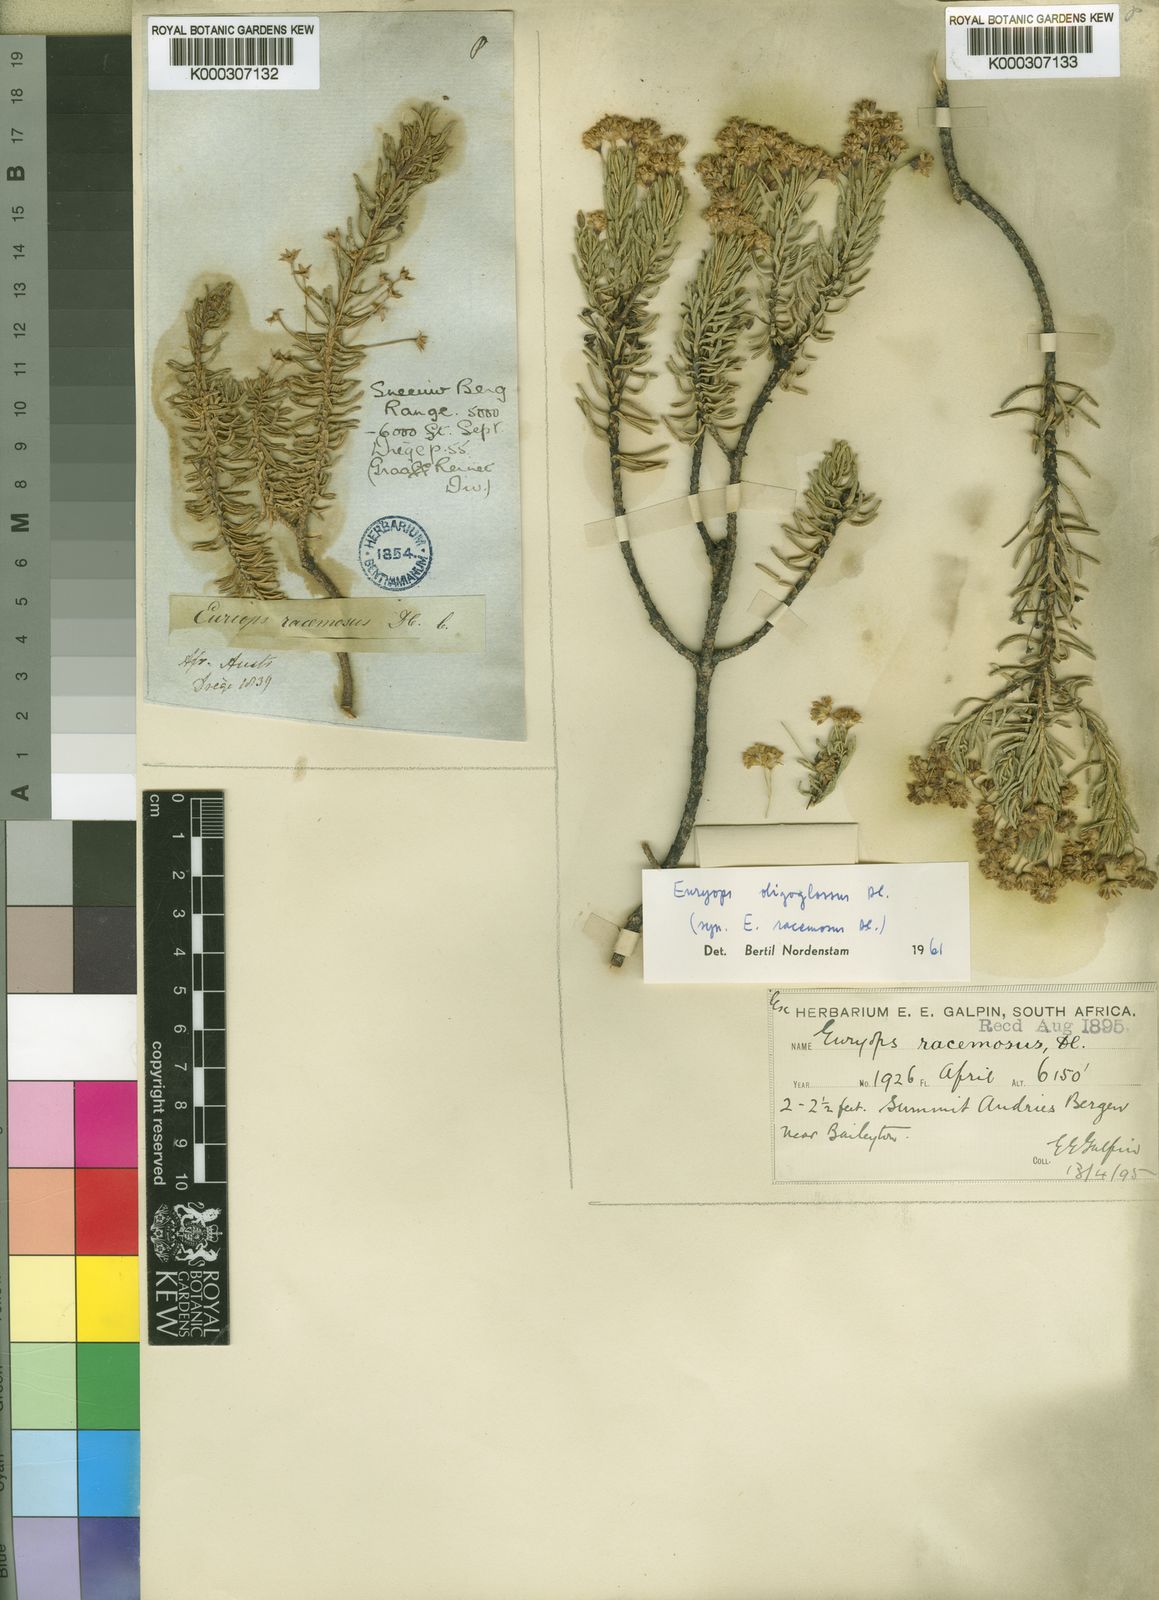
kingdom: Plantae
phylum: Tracheophyta
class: Magnoliopsida
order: Asterales
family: Asteraceae
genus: Euryops
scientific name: Euryops oligoglossus
